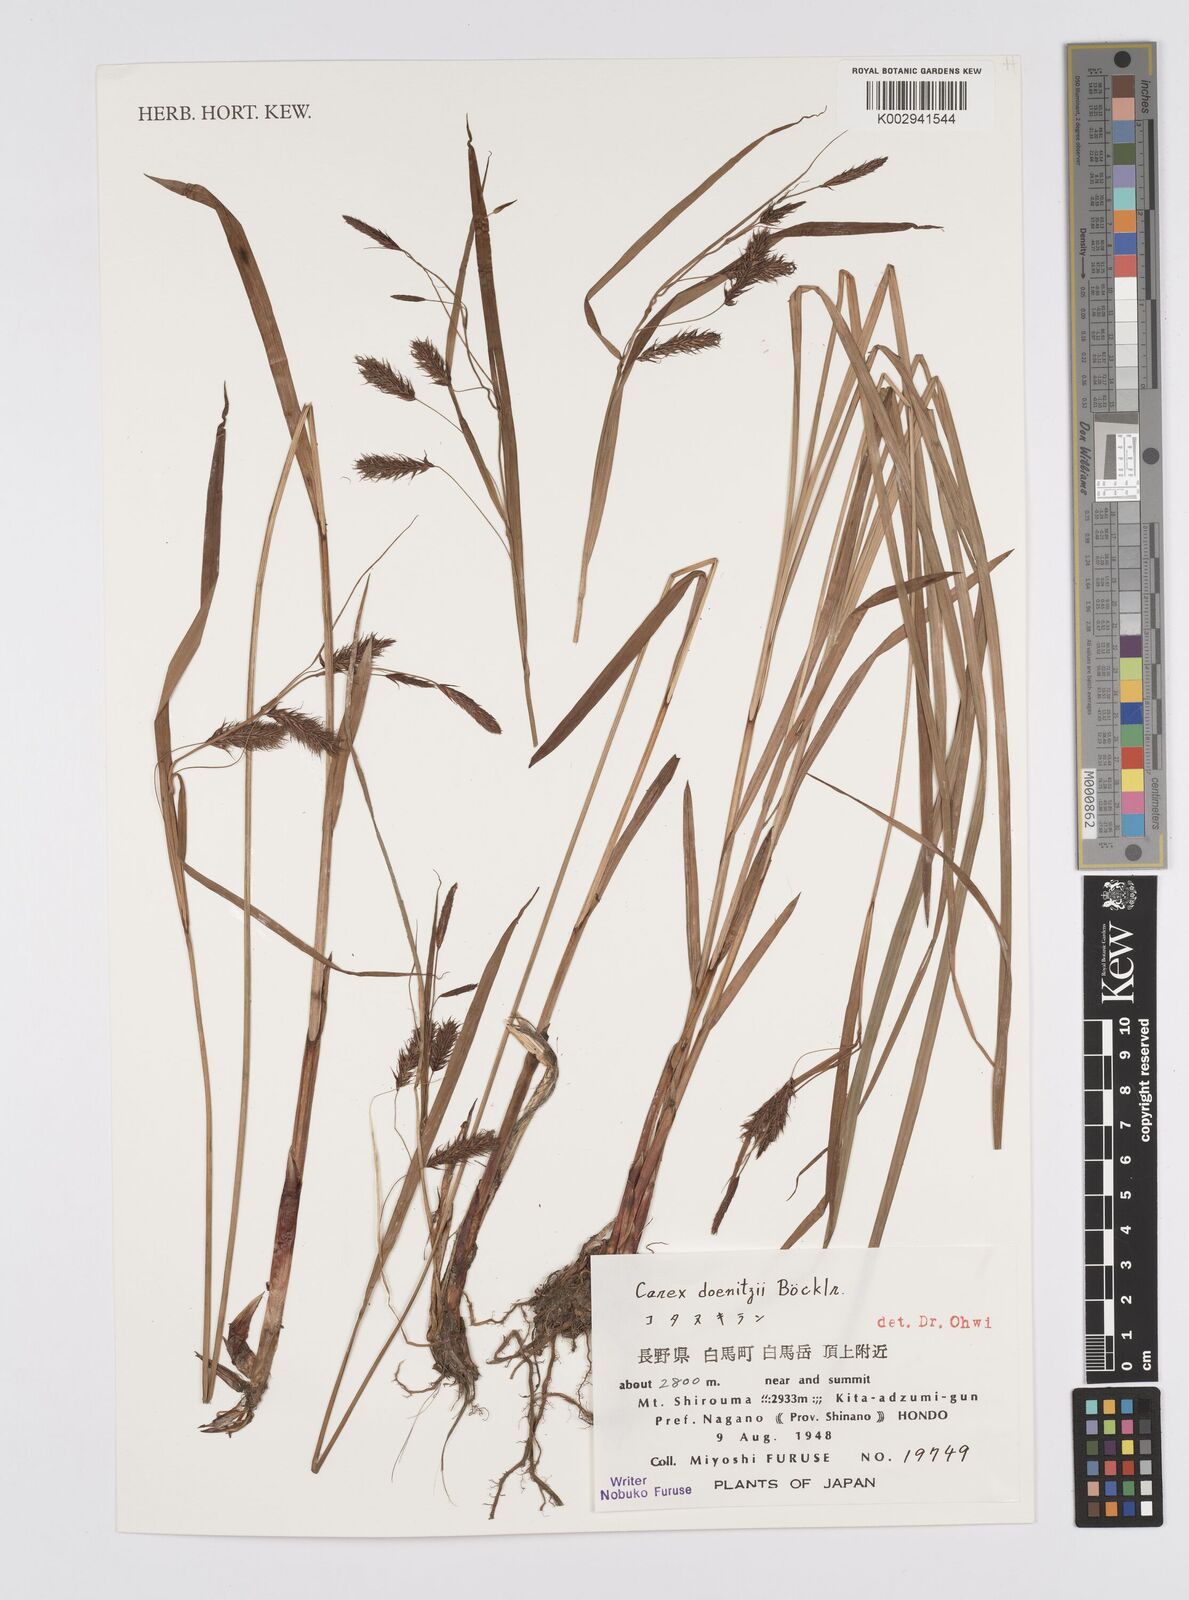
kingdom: Plantae
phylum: Tracheophyta
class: Liliopsida
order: Poales
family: Cyperaceae
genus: Carex
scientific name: Carex doenitzii
